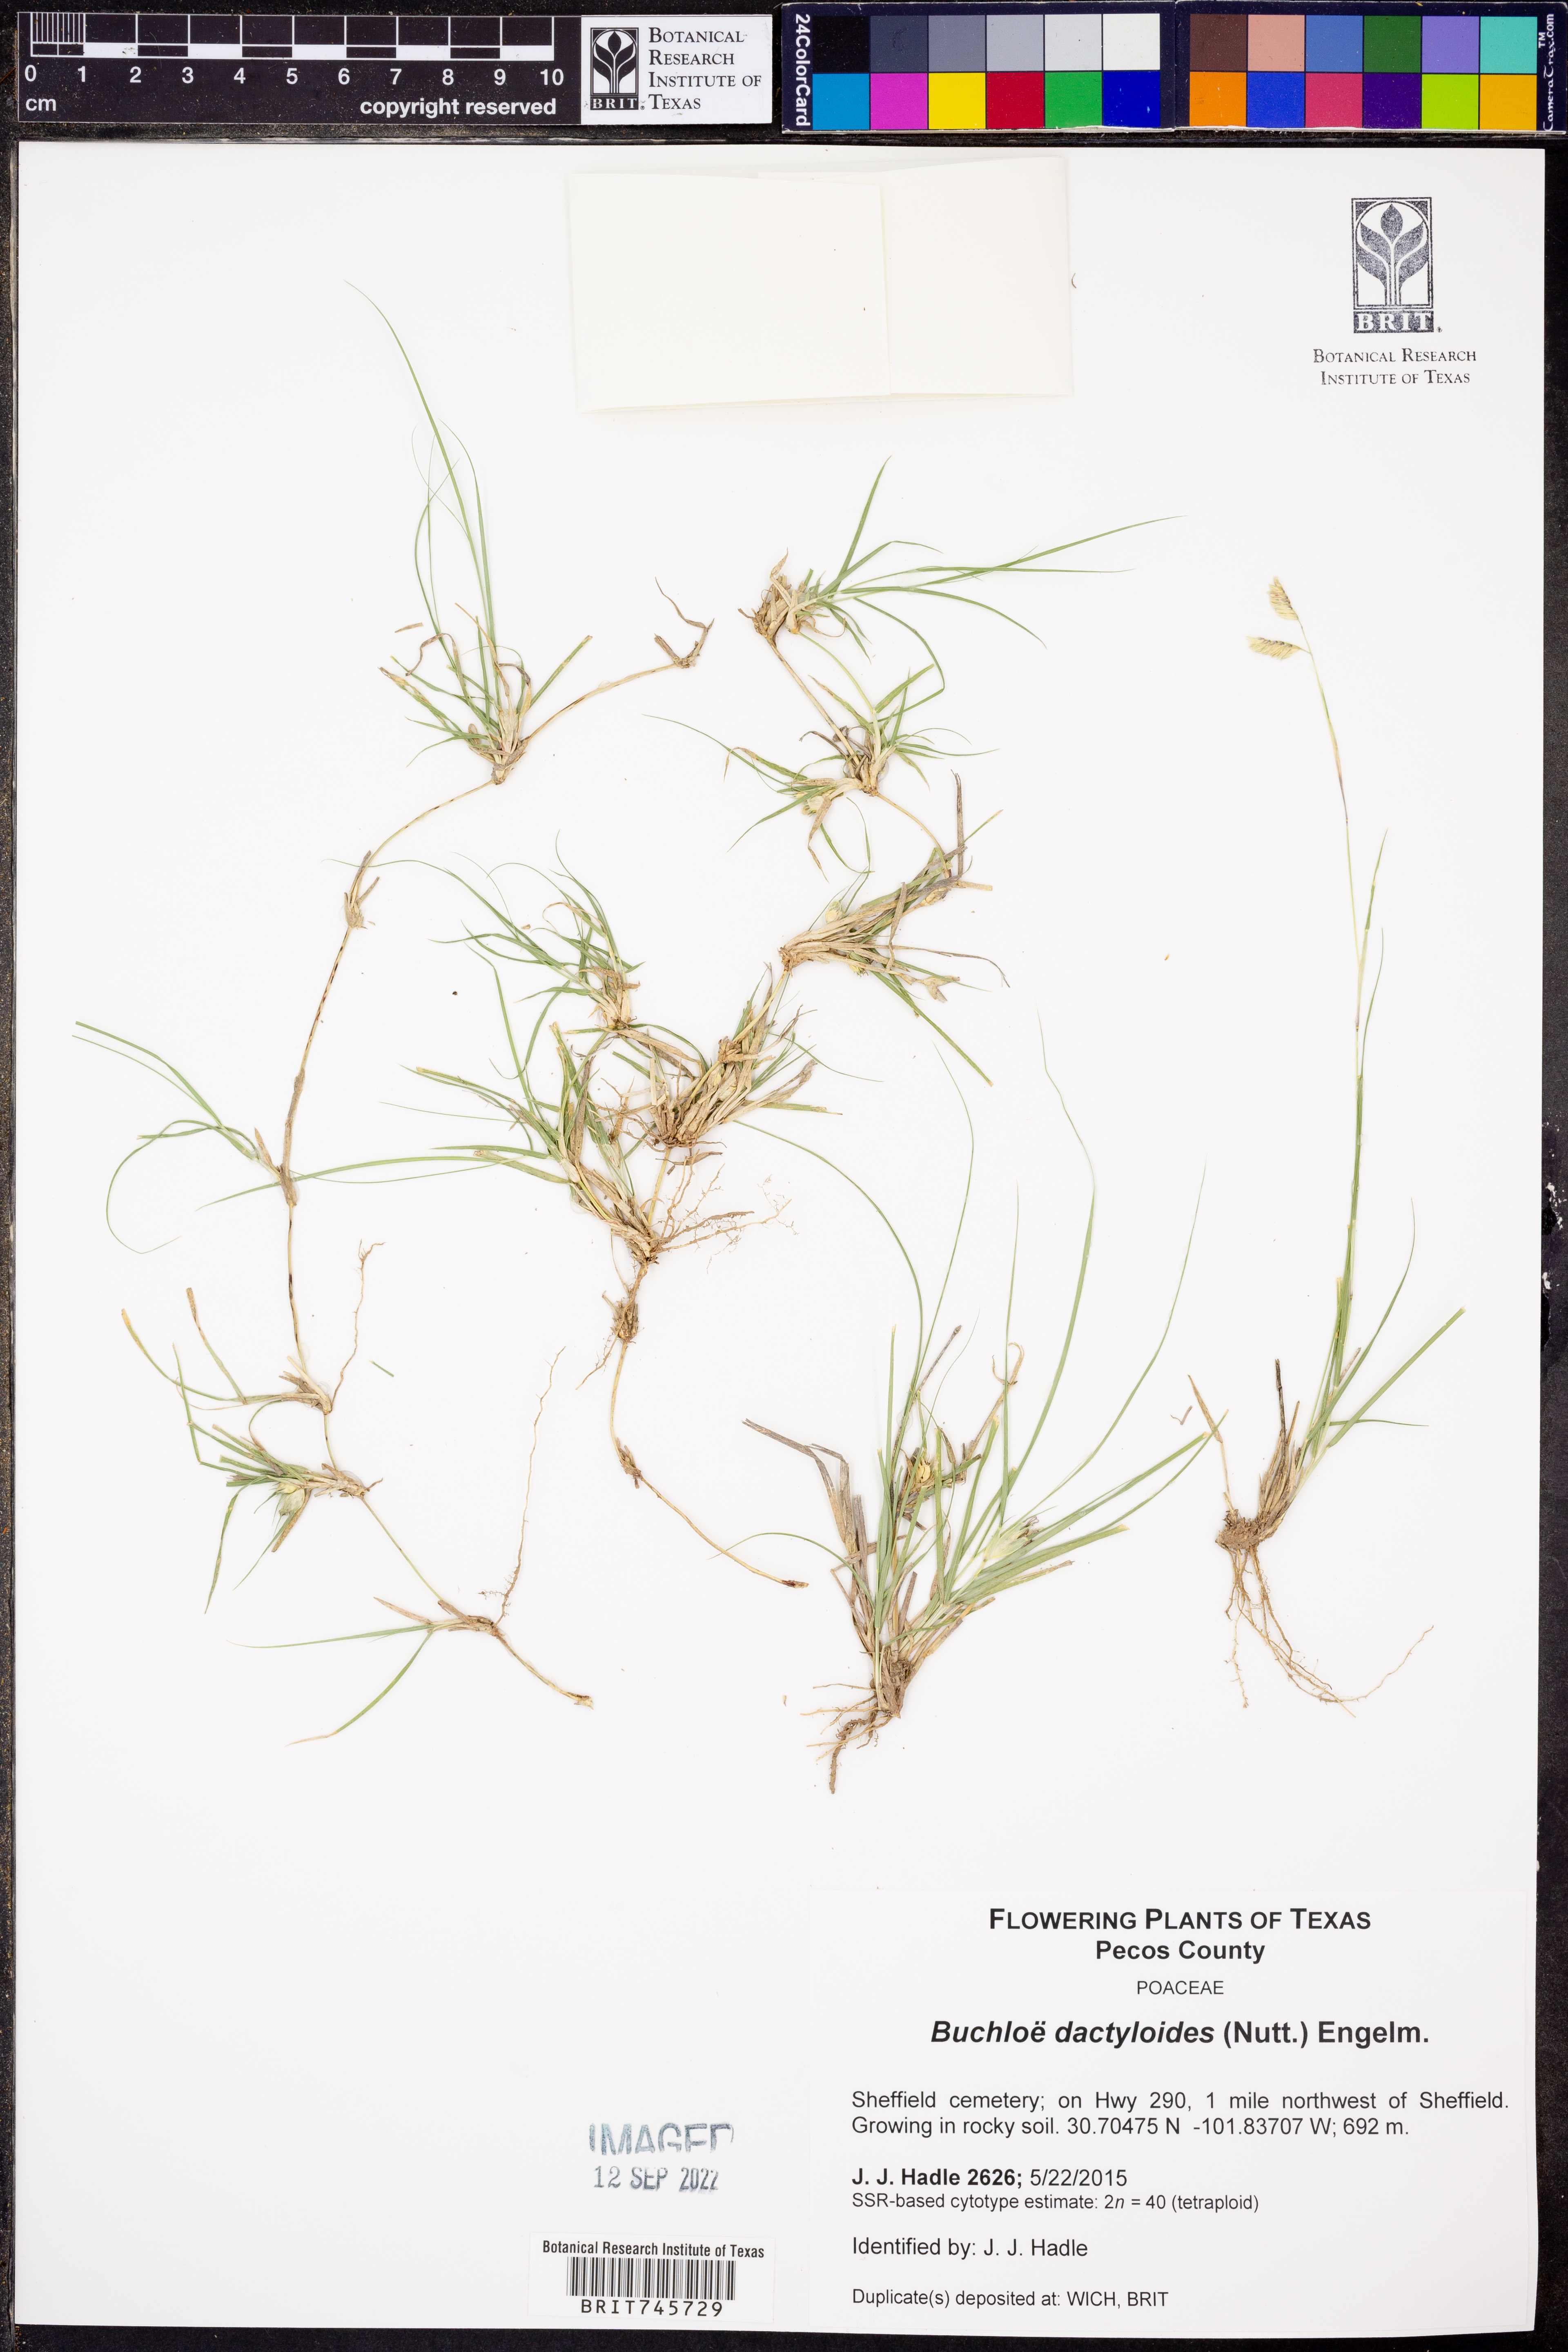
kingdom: Plantae
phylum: Tracheophyta
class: Liliopsida
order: Poales
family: Poaceae
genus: Bouteloua
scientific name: Bouteloua dactyloides
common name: Buffalo grass
